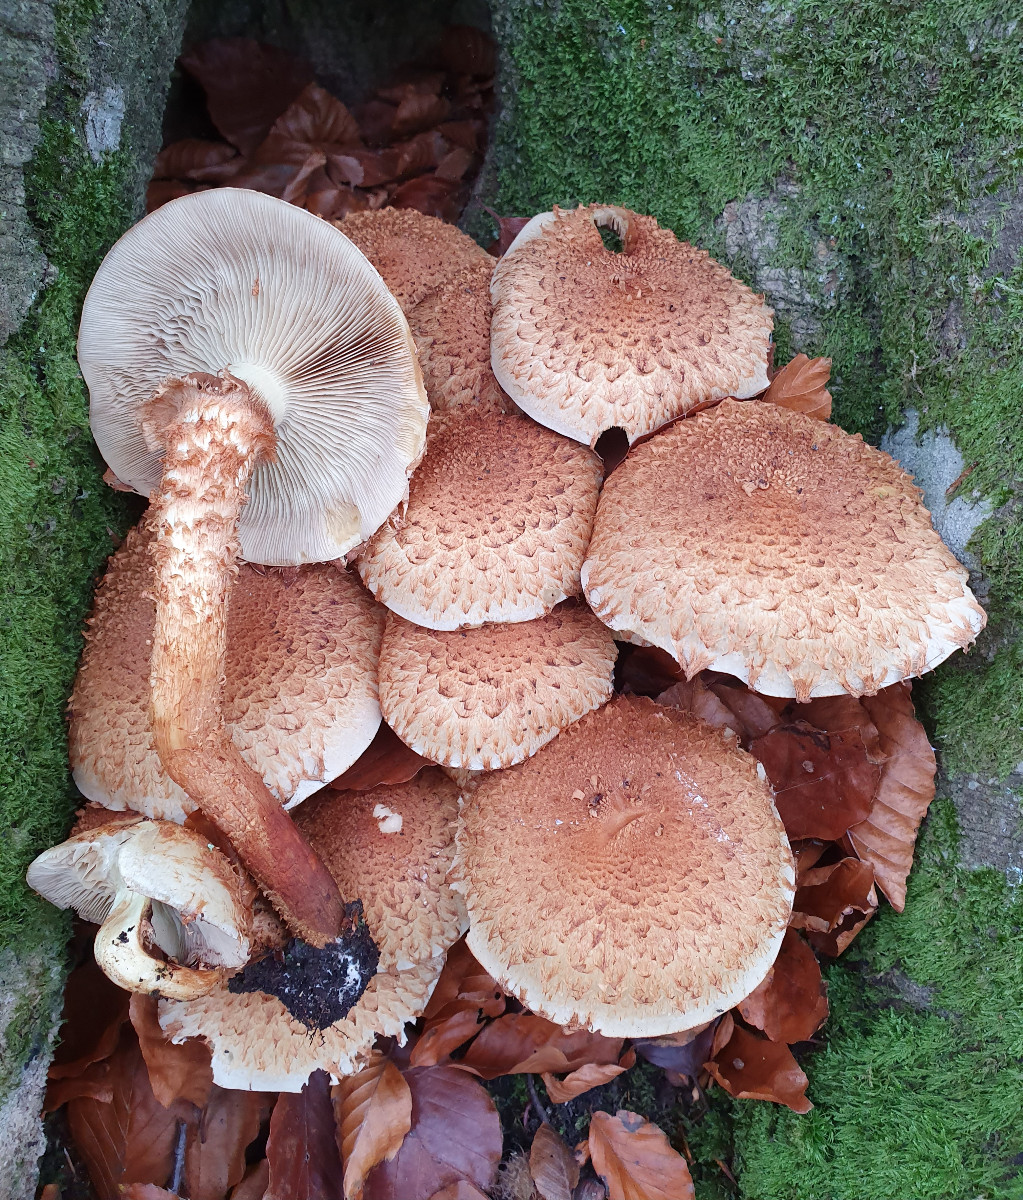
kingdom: Fungi
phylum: Basidiomycota
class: Agaricomycetes
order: Agaricales
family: Strophariaceae
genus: Pholiota
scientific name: Pholiota squarrosa
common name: krumskællet skælhat
